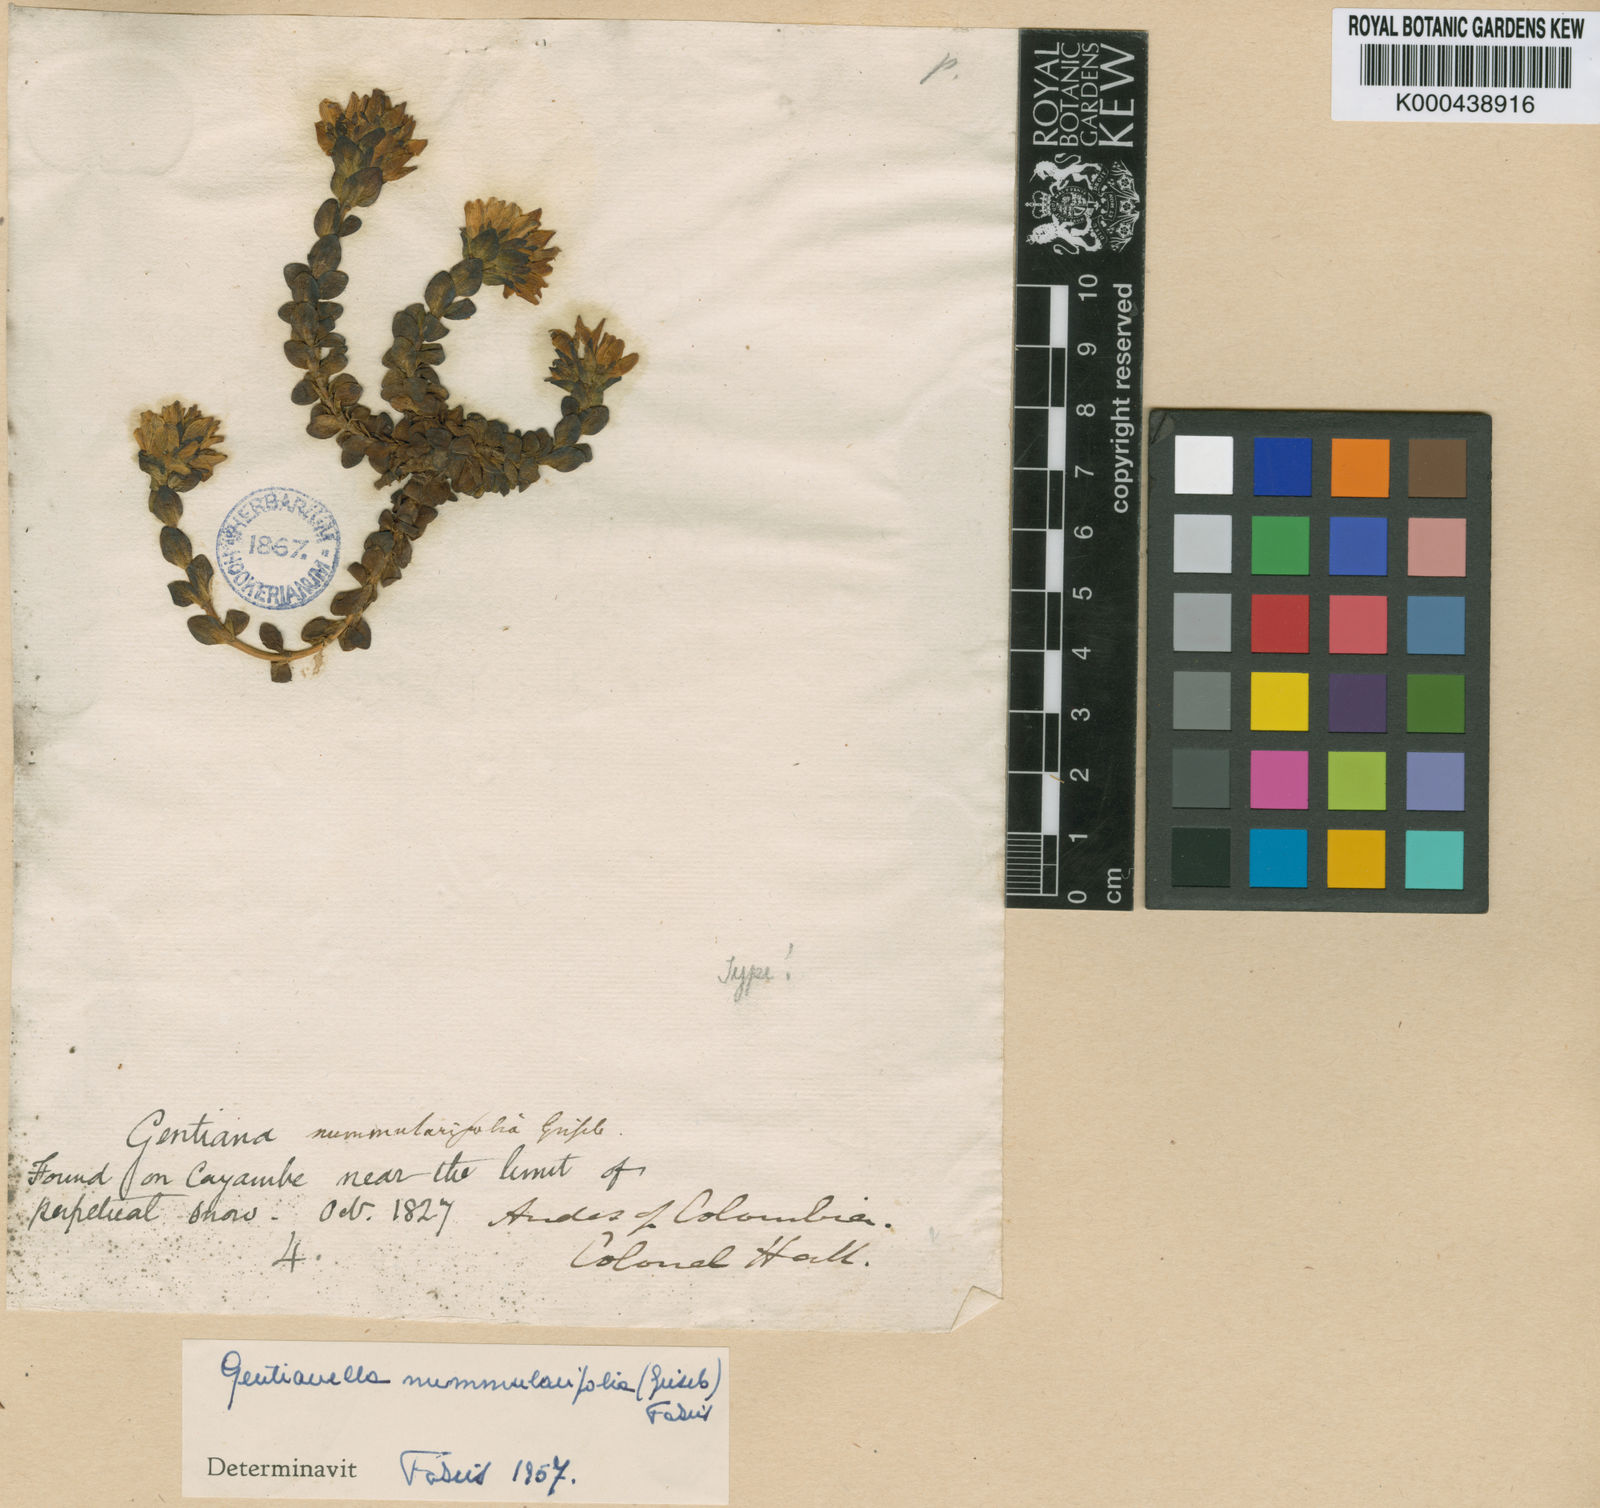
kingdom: Plantae
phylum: Tracheophyta
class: Magnoliopsida
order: Gentianales
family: Gentianaceae
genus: Gentianella
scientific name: Gentianella nummulariifolia
